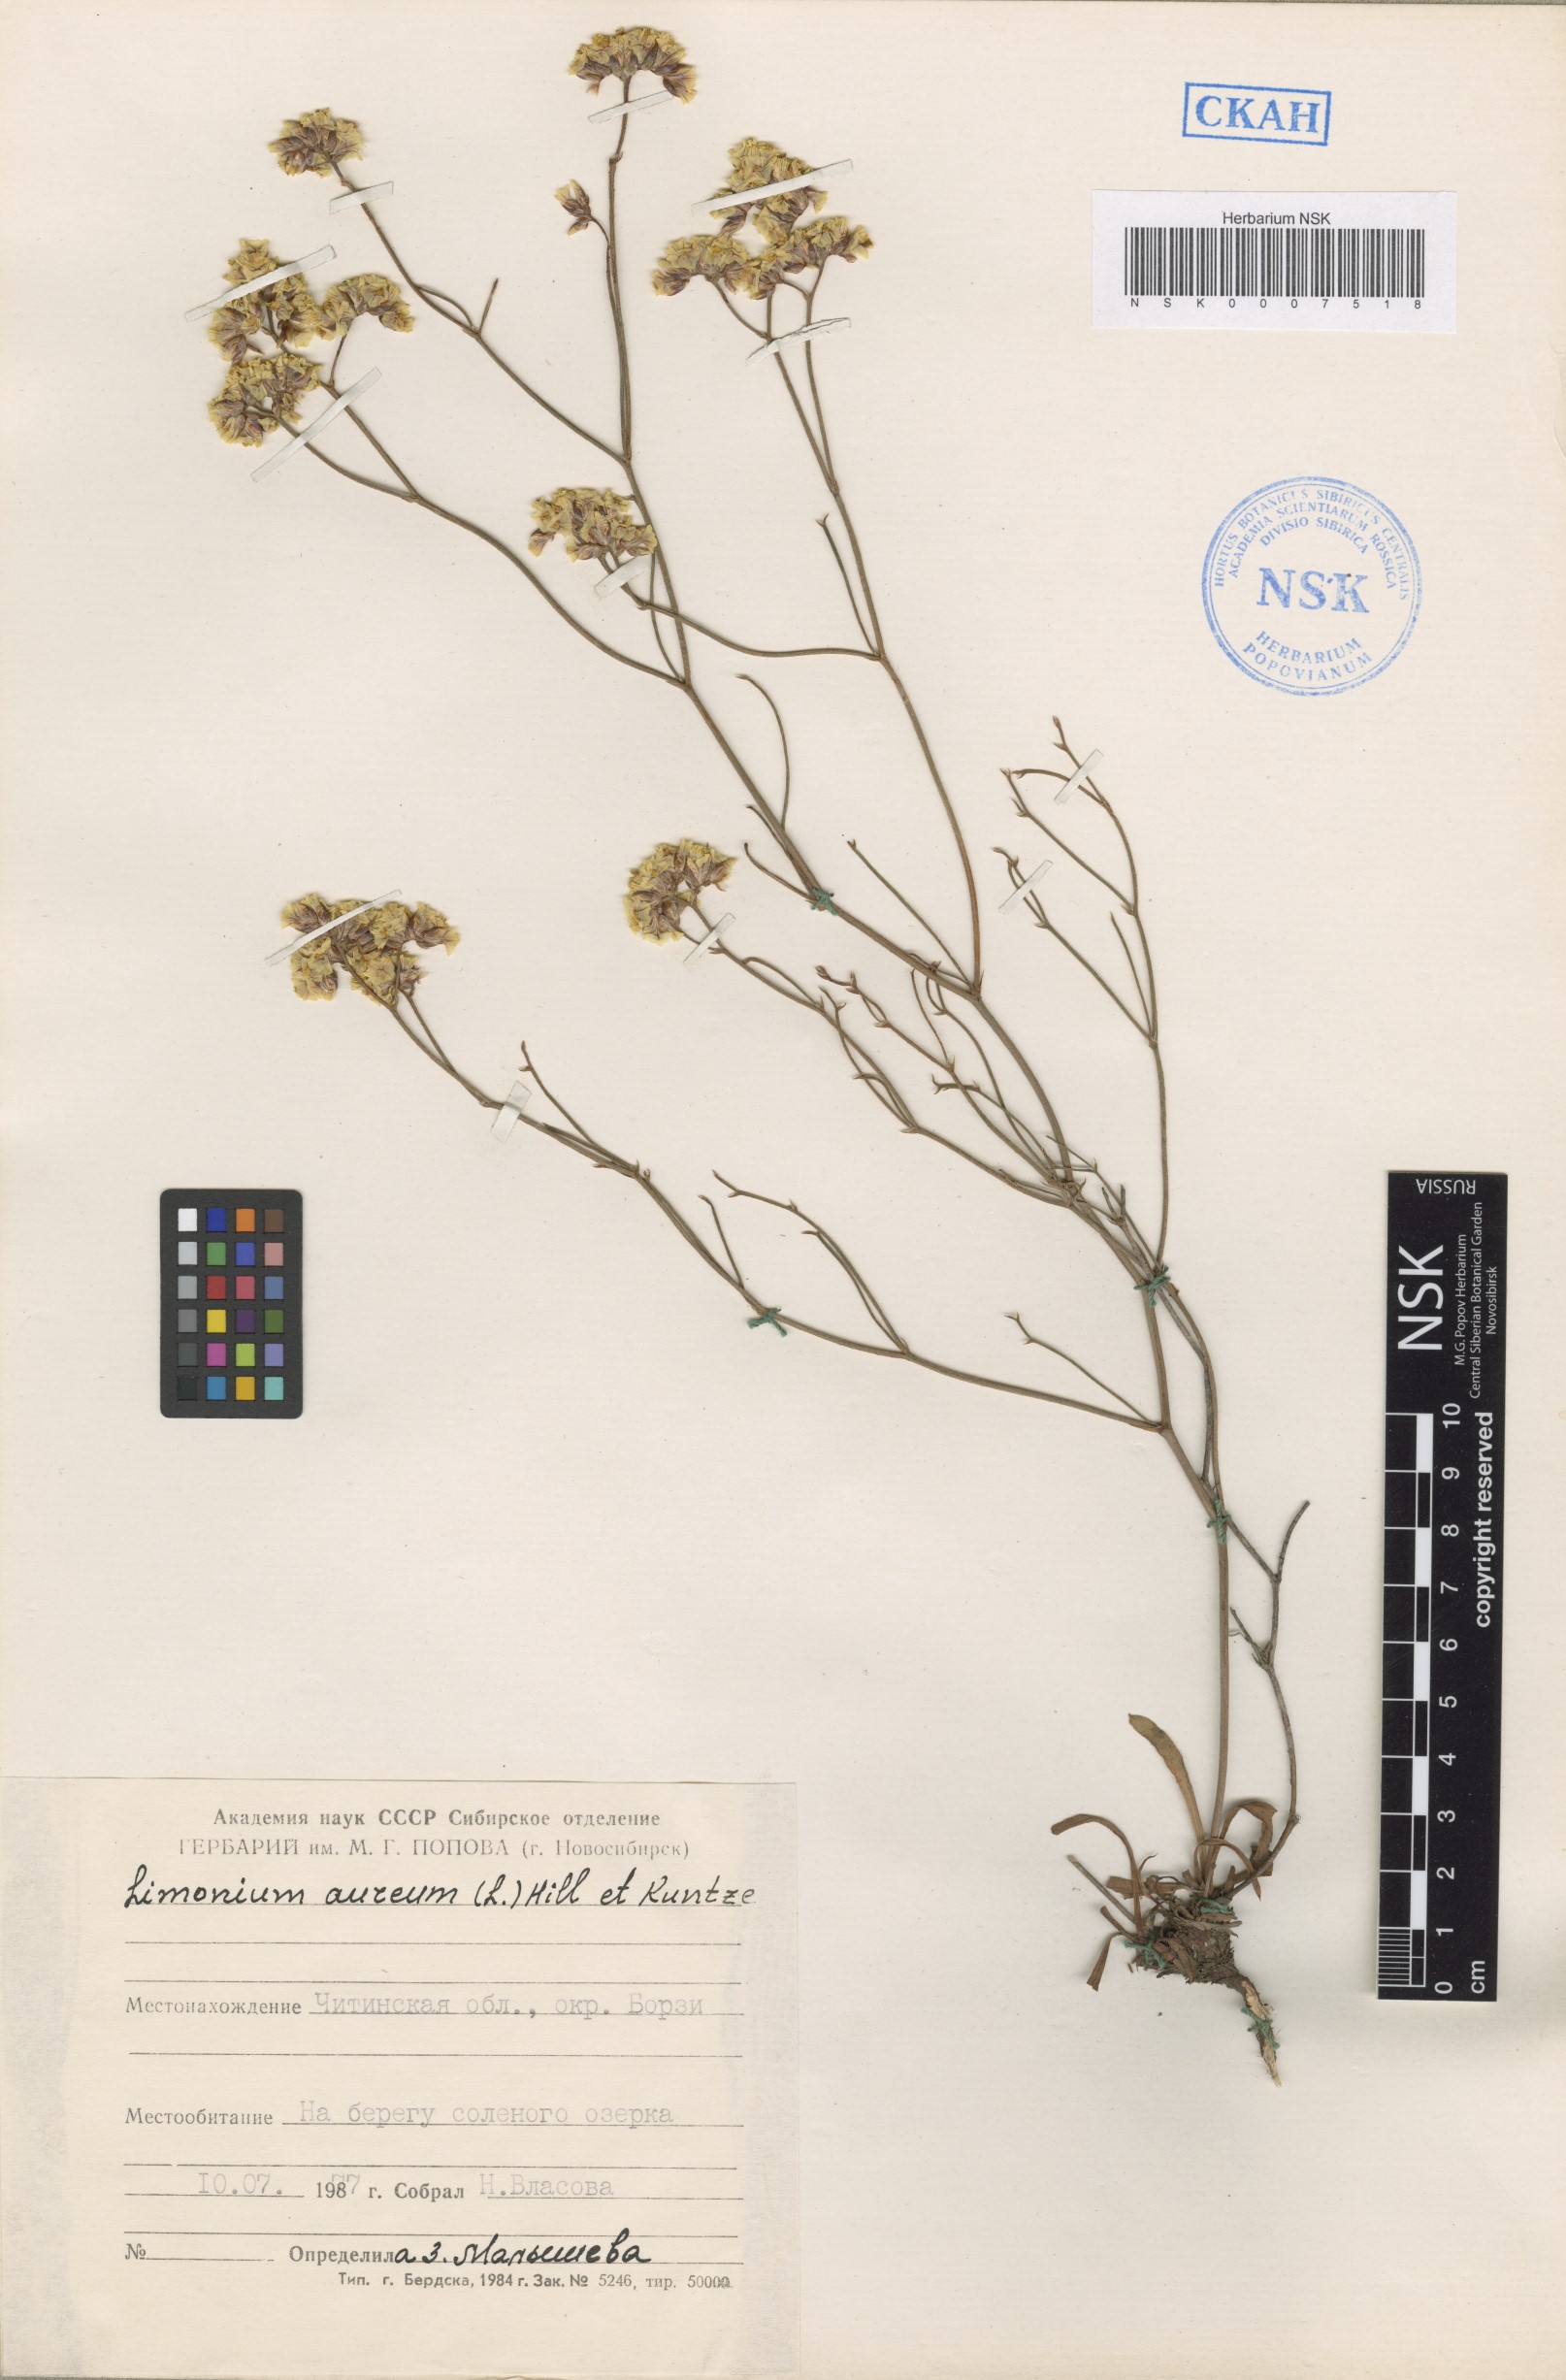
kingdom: Plantae
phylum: Tracheophyta
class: Magnoliopsida
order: Caryophyllales
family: Plumbaginaceae
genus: Limonium
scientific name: Limonium aureum
